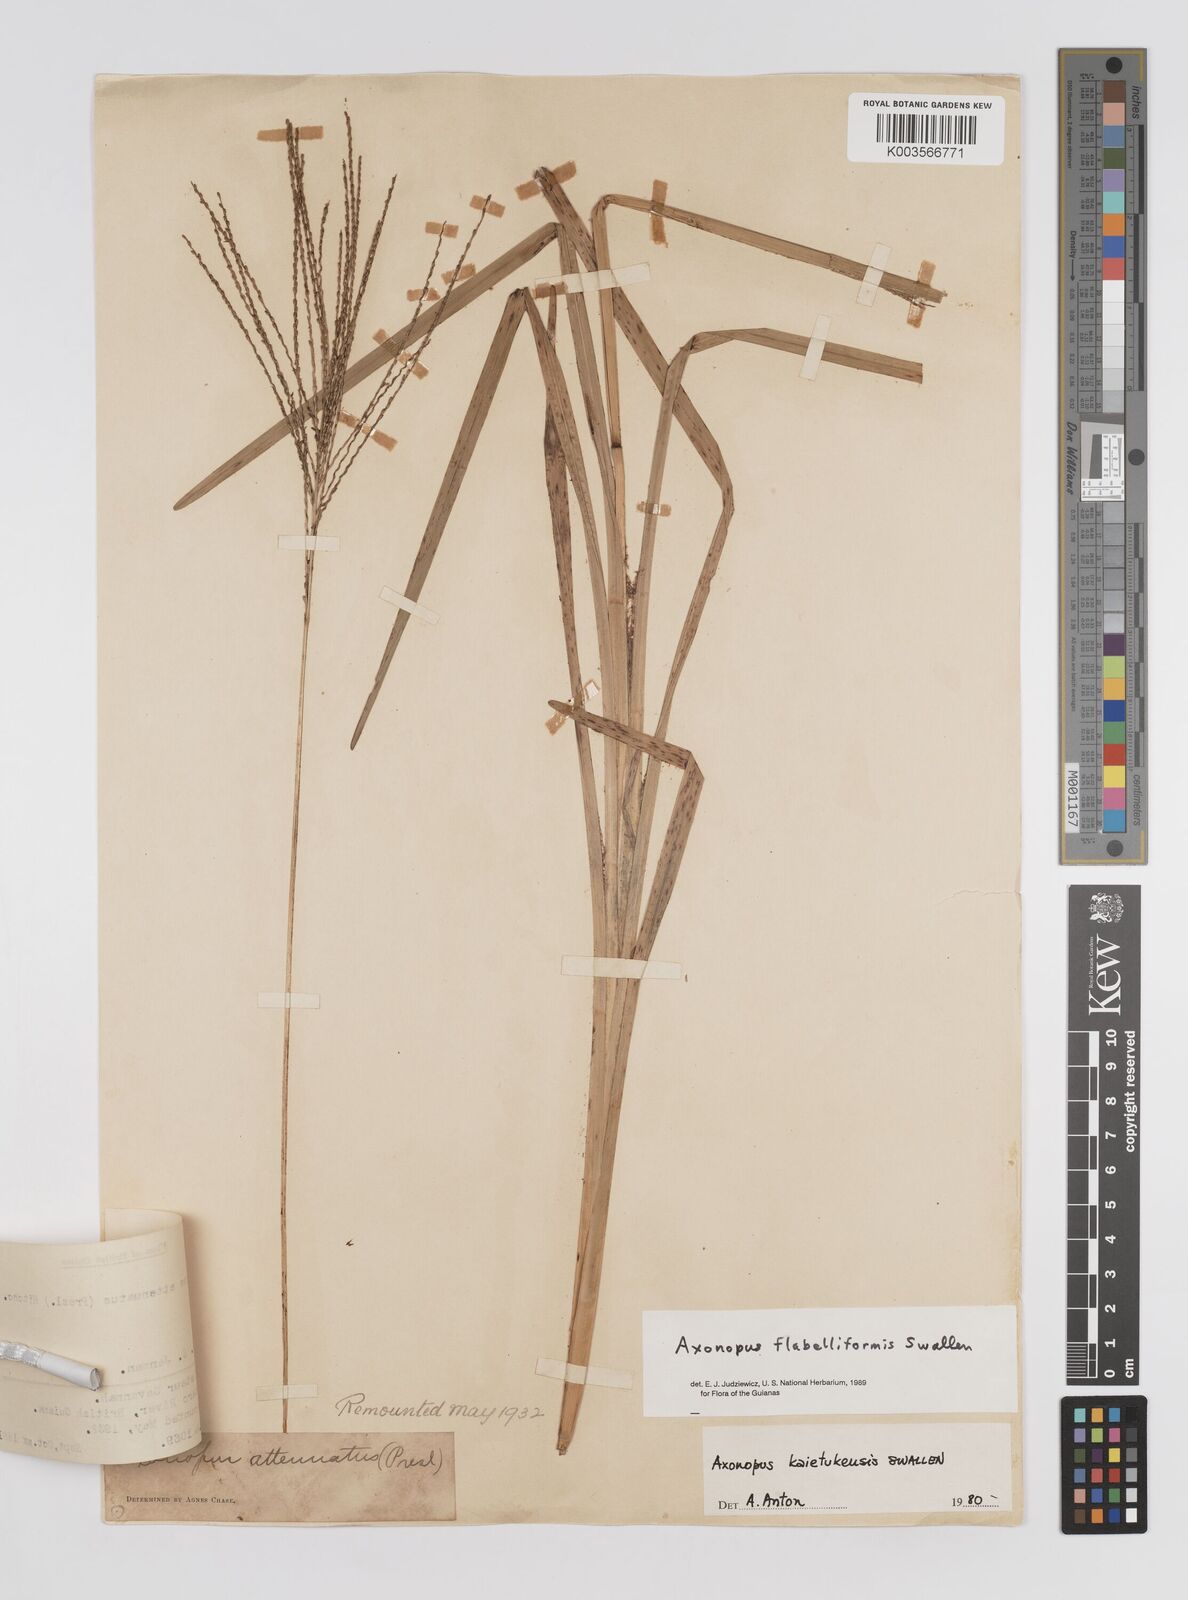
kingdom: Plantae
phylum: Tracheophyta
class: Liliopsida
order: Poales
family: Poaceae
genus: Axonopus
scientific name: Axonopus flabelliformis
